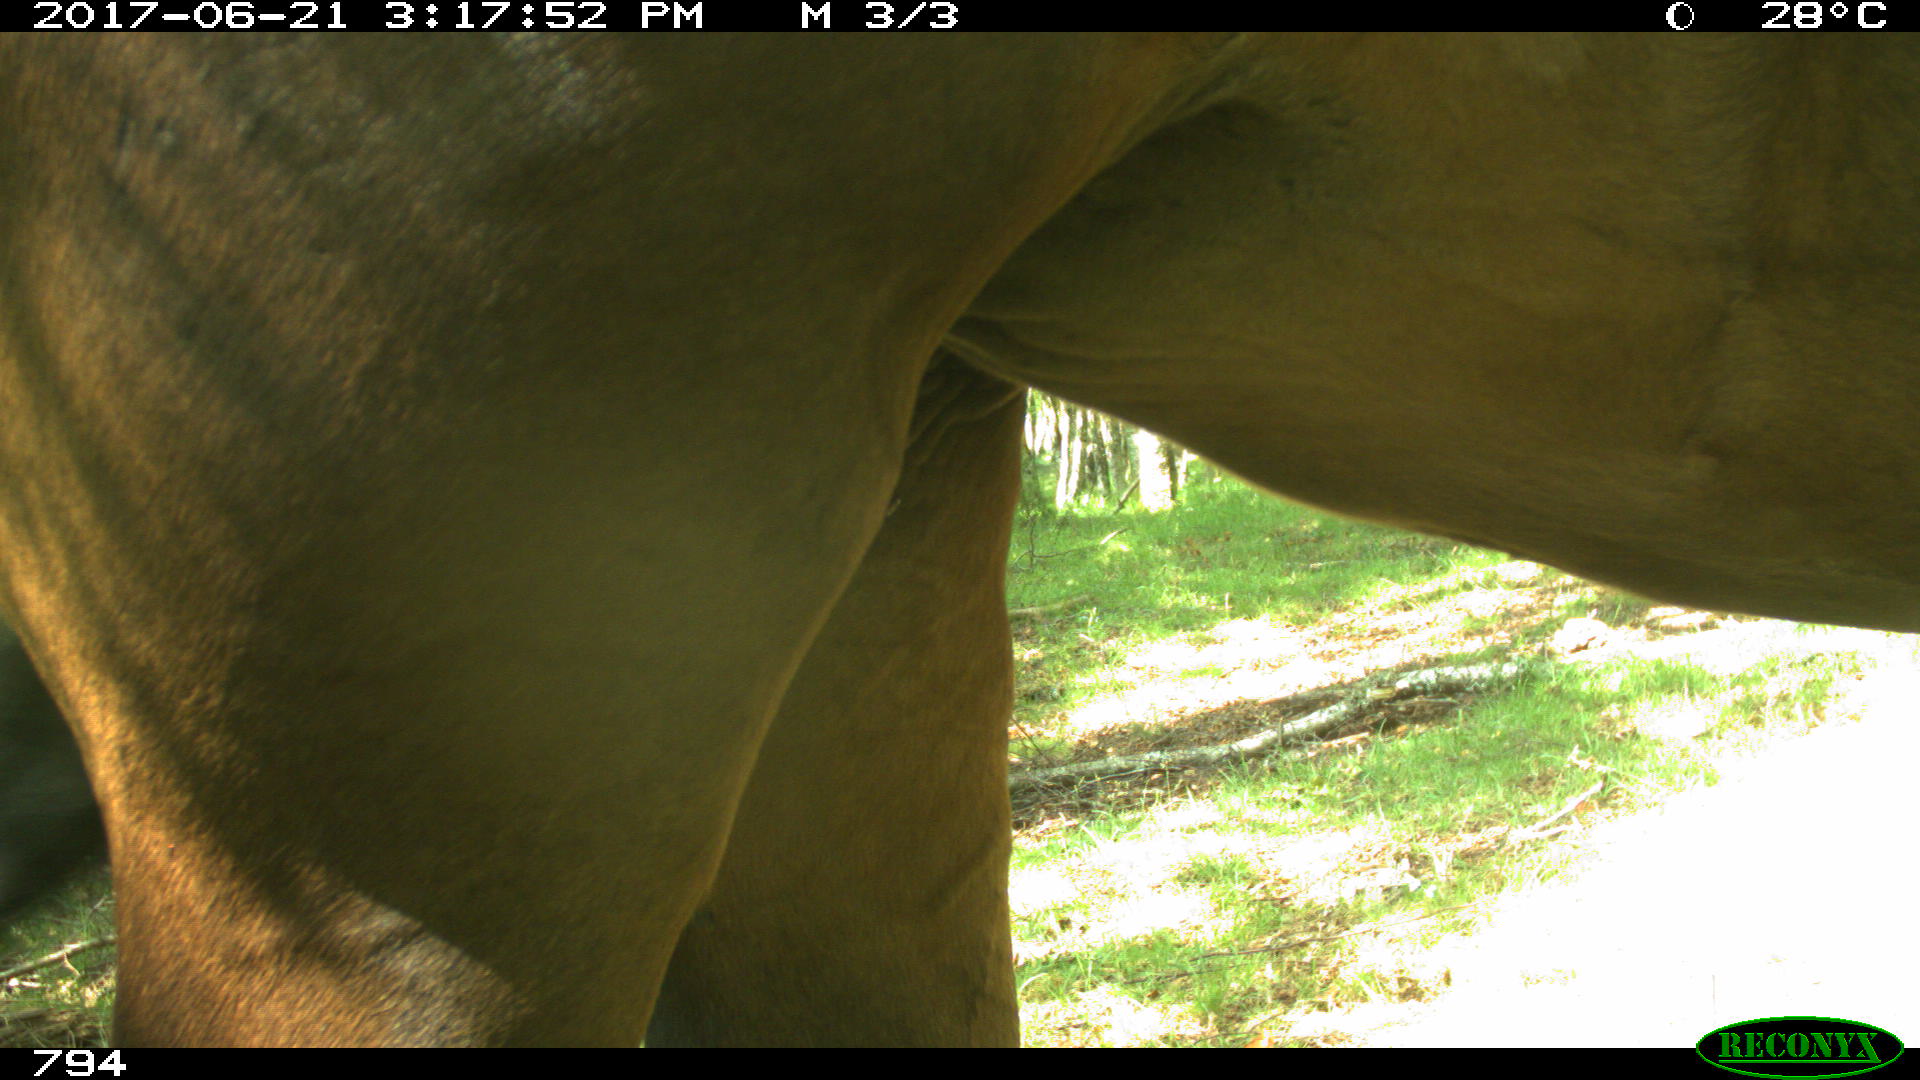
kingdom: Animalia
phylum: Chordata
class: Mammalia
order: Perissodactyla
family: Equidae
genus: Equus
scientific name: Equus caballus
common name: Horse
